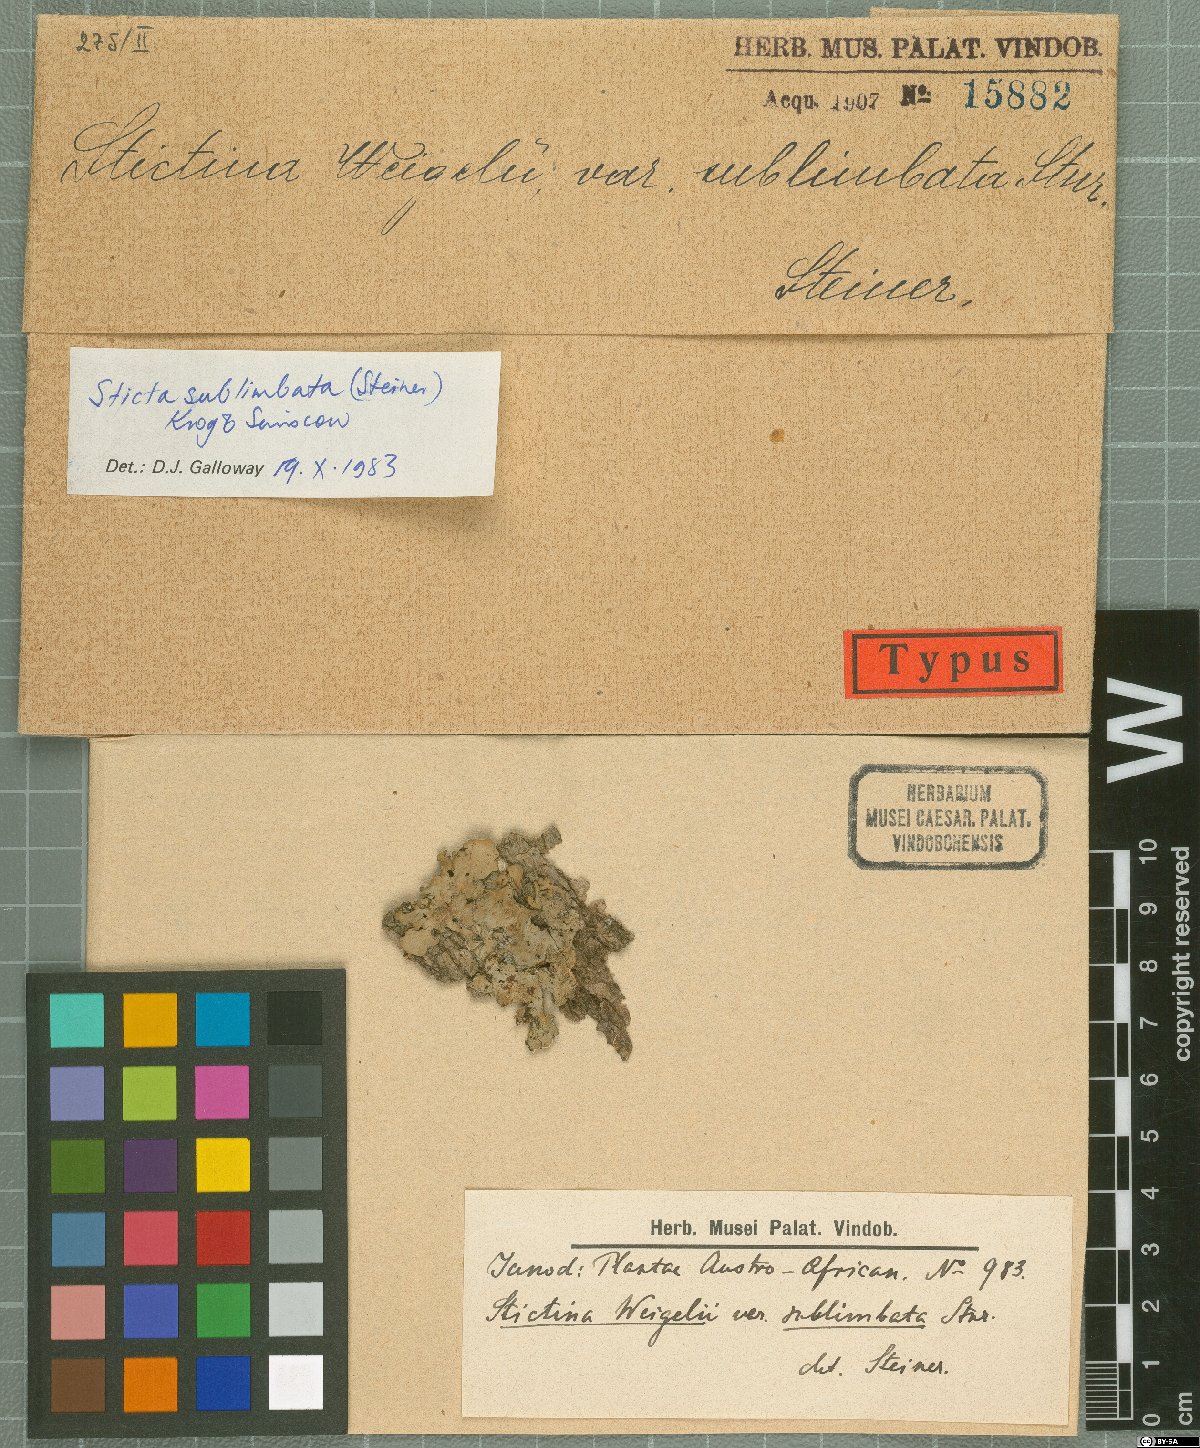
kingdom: Fungi
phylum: Ascomycota
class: Lecanoromycetes
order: Peltigerales
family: Lobariaceae
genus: Sticta
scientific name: Sticta sublimbata
